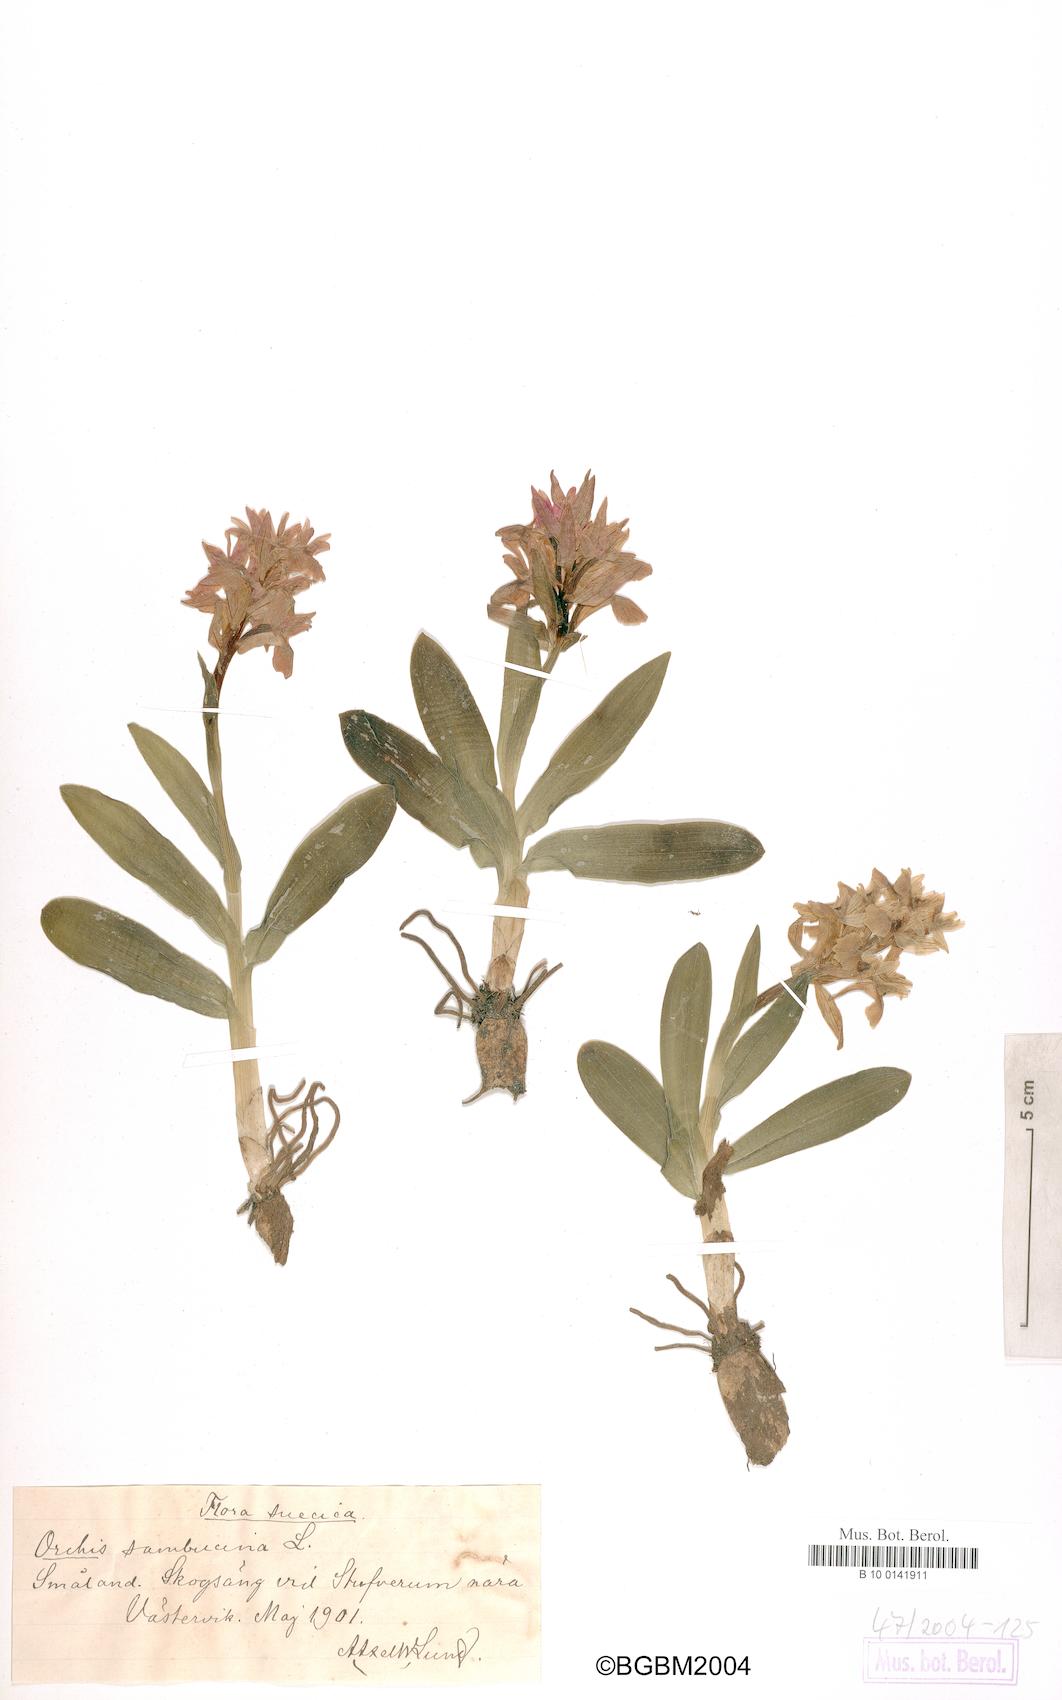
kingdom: Plantae
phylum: Tracheophyta
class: Liliopsida
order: Asparagales
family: Orchidaceae
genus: Dactylorhiza
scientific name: Dactylorhiza sambucina
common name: Elder-flowered orchid
